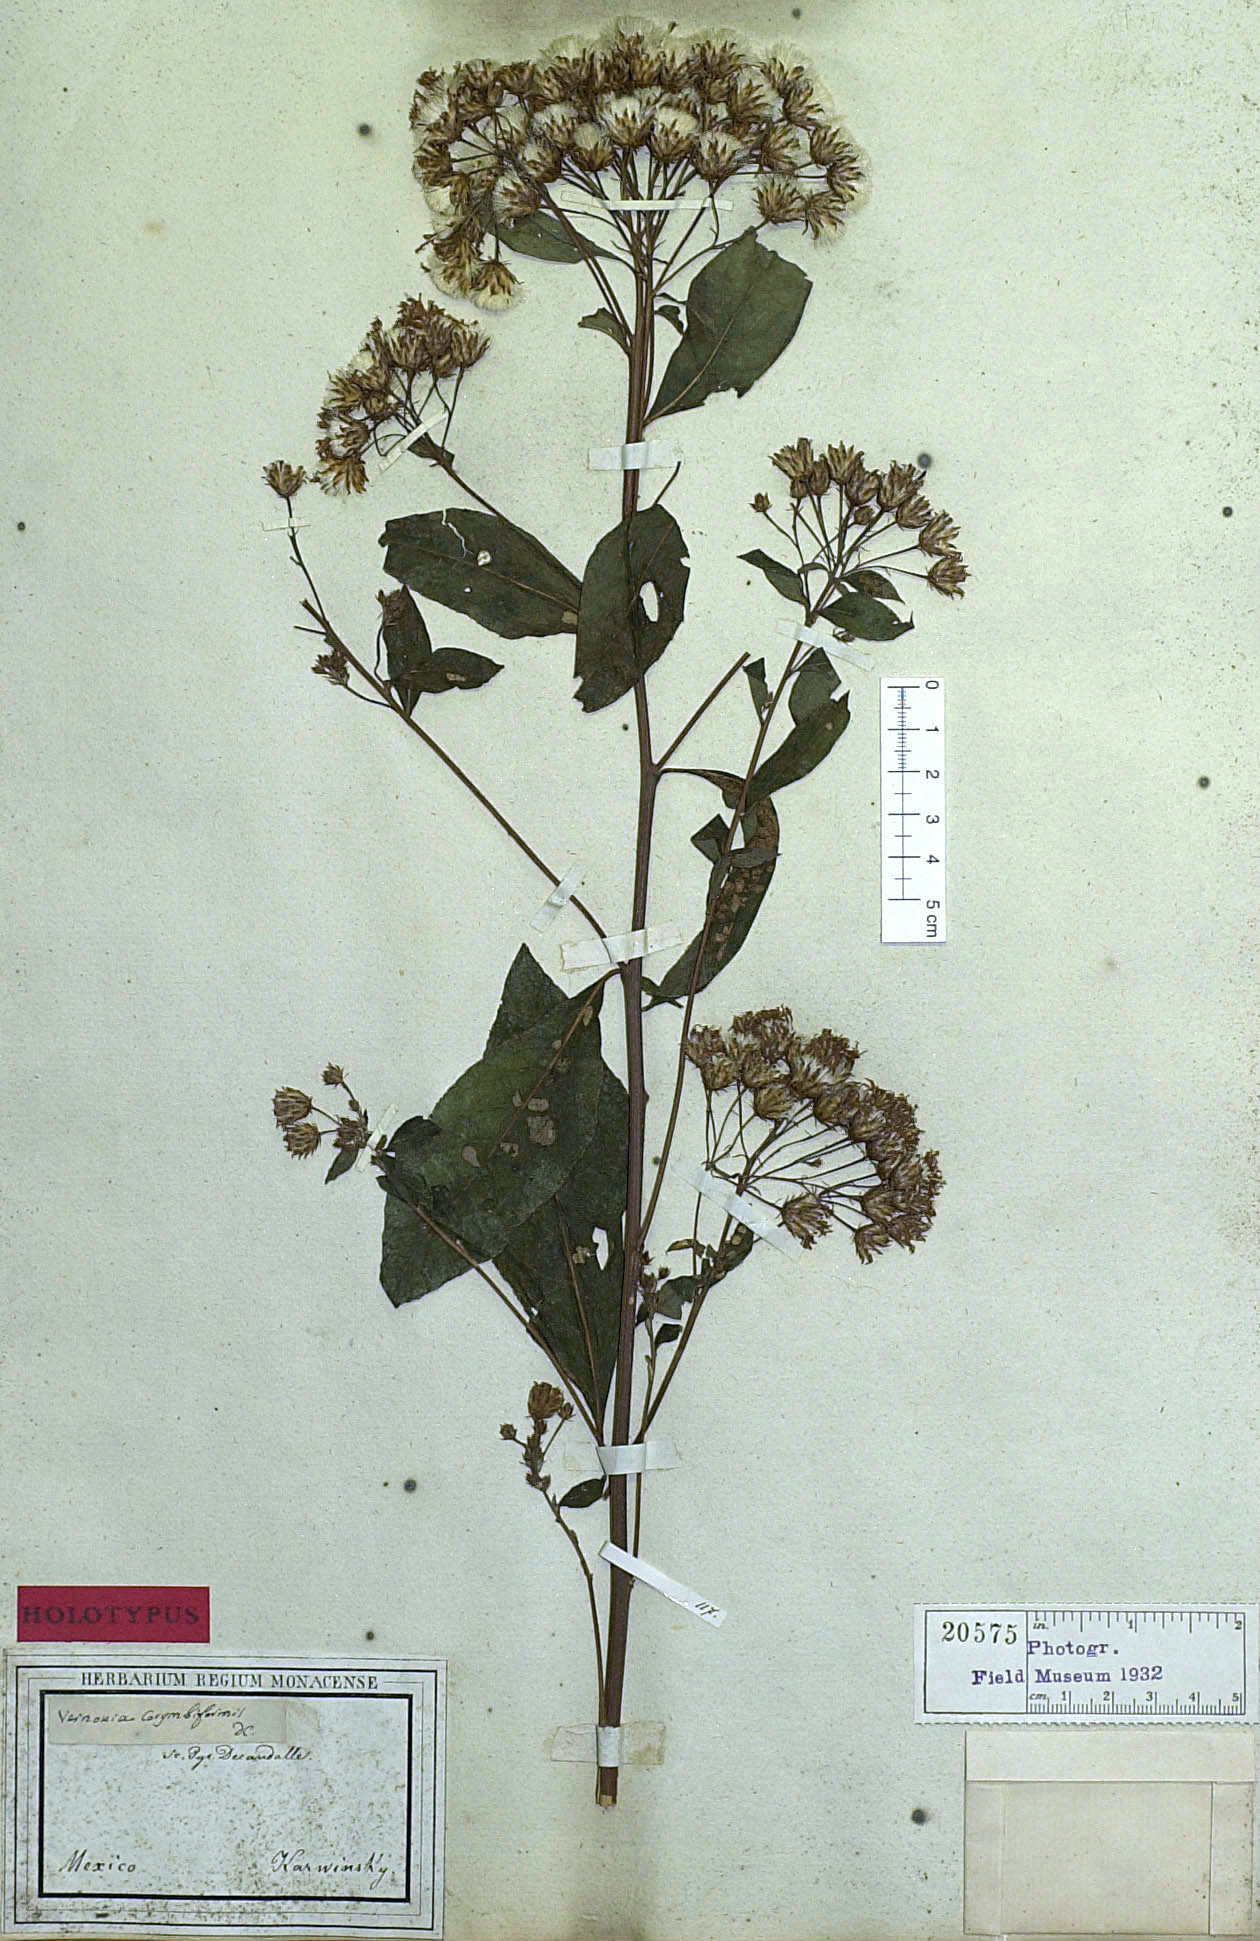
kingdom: Plantae
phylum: Tracheophyta
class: Magnoliopsida
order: Asterales
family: Asteraceae
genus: Vernonia
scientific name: Vernonia karvinskiana
